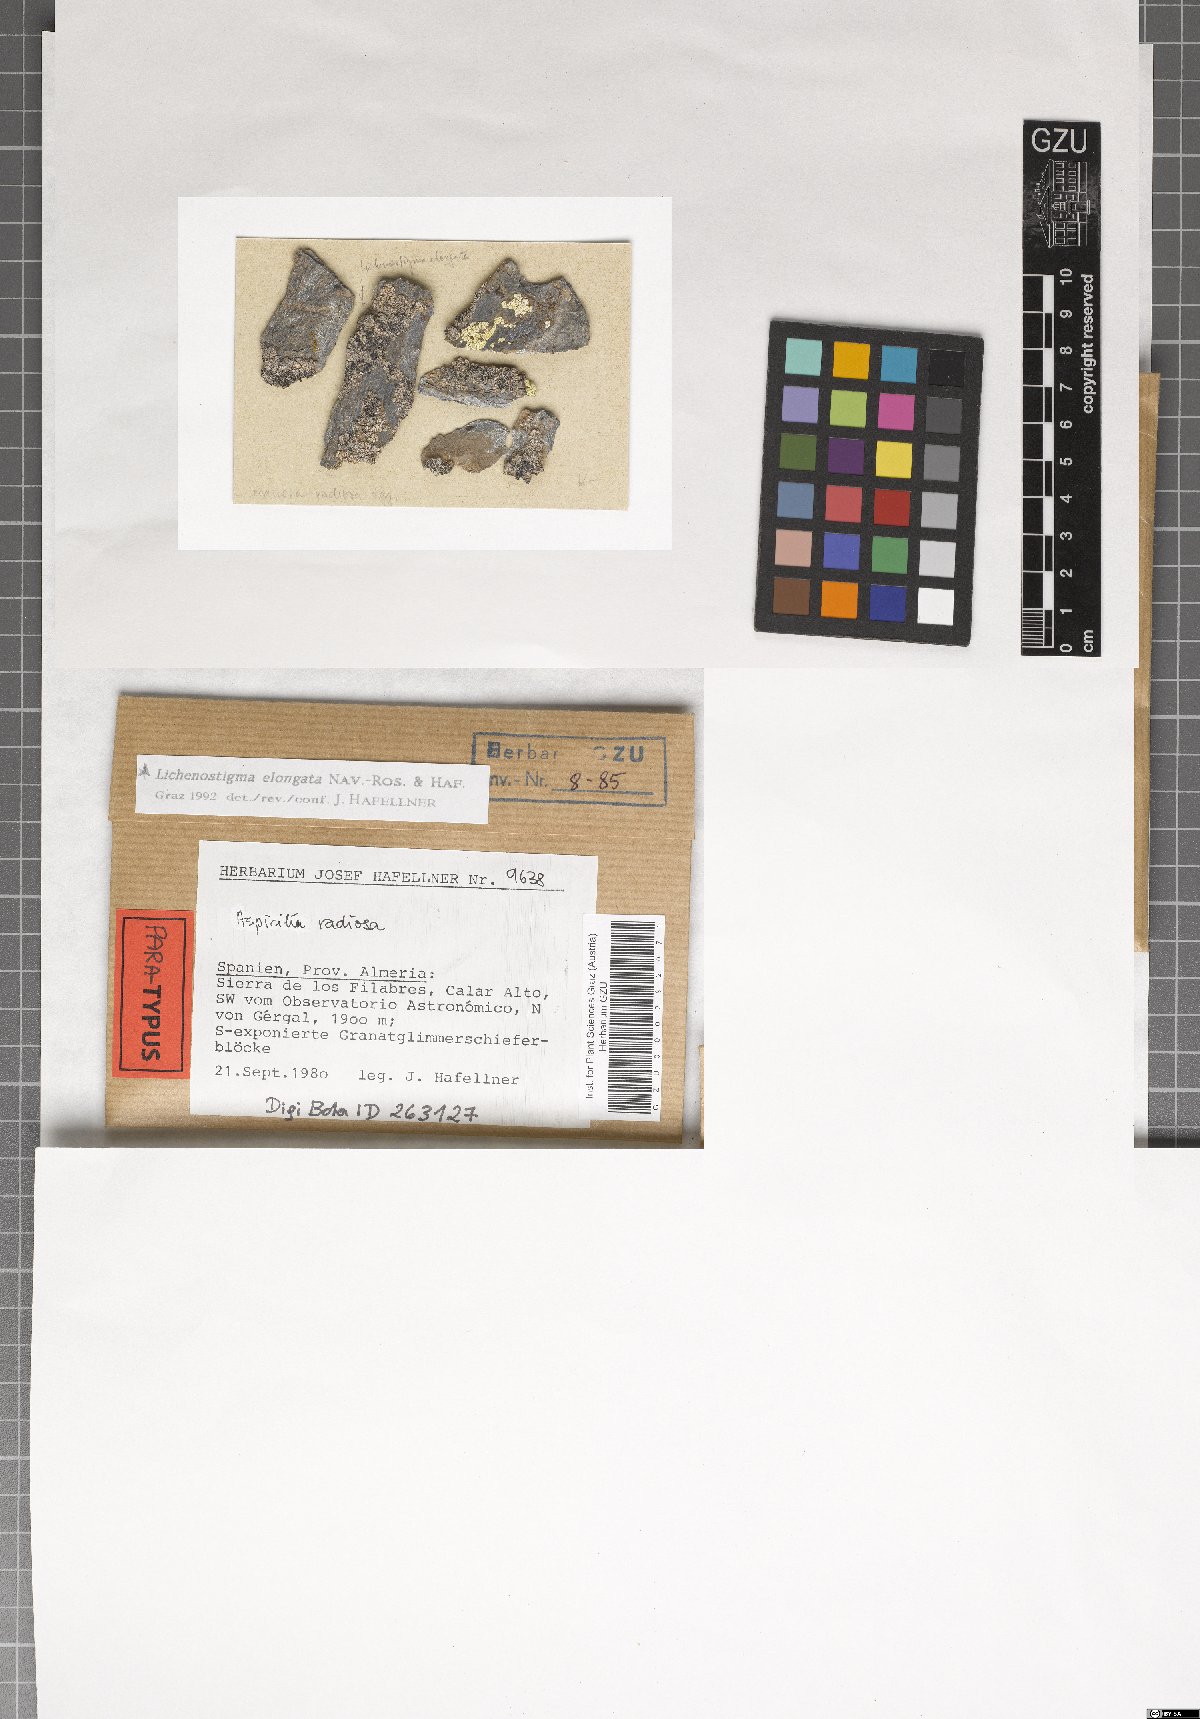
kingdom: Fungi
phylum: Ascomycota
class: Arthoniomycetes
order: Lichenostigmatales
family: Phaeococcomycetaceae
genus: Lichenostigma
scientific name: Lichenostigma elongatum
